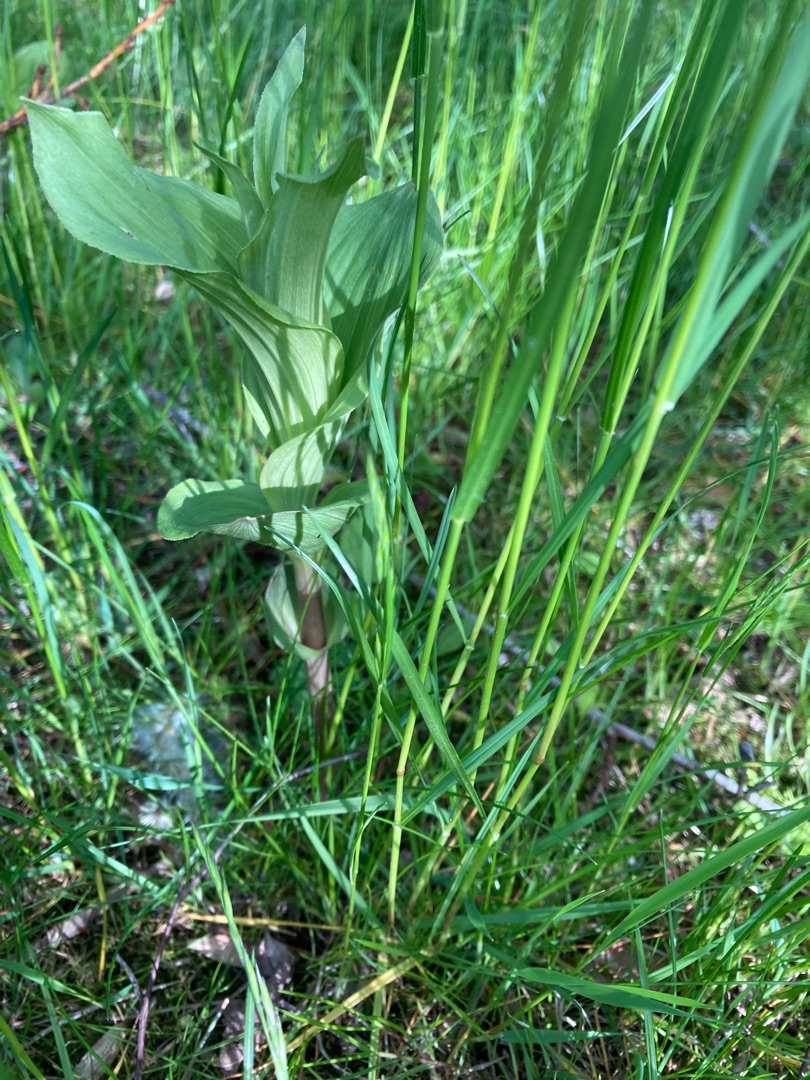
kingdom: Plantae
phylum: Tracheophyta
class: Liliopsida
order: Asparagales
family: Orchidaceae
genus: Epipactis
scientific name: Epipactis helleborine
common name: Skov-hullæbe
